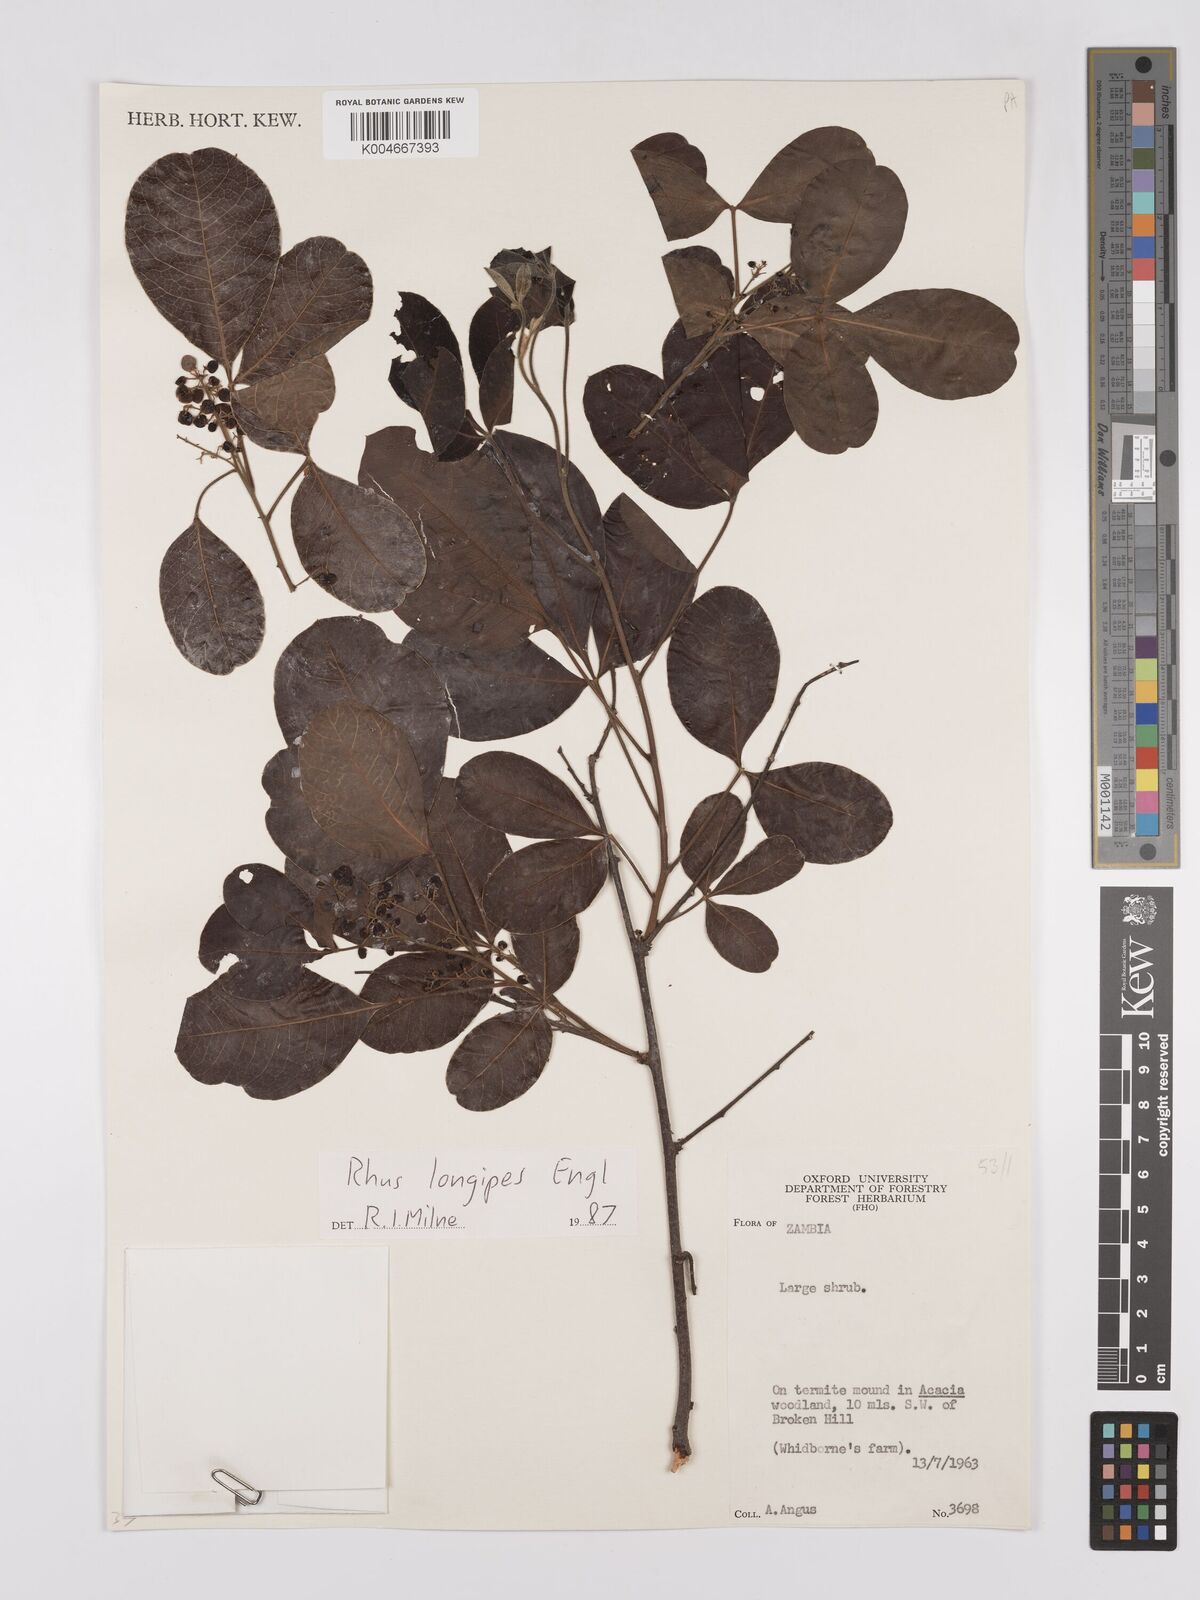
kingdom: Plantae
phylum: Tracheophyta
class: Magnoliopsida
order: Sapindales
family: Anacardiaceae
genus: Searsia
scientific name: Searsia longipes
